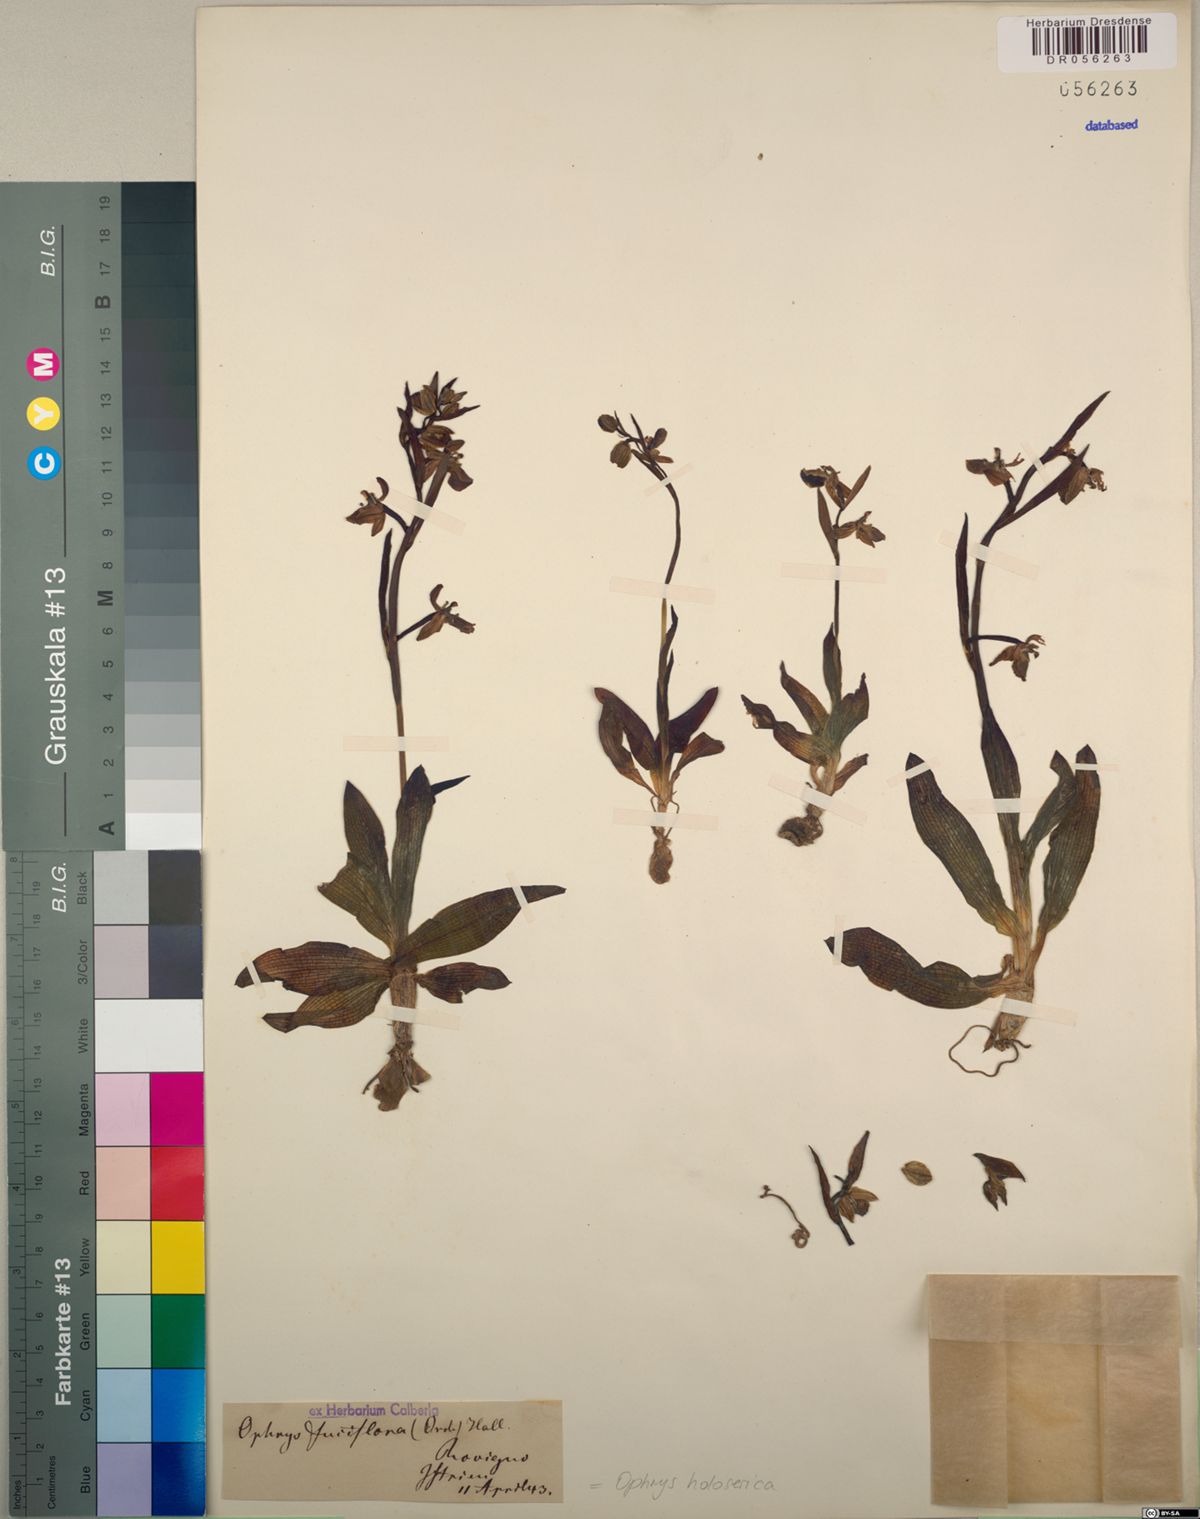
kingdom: Plantae
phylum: Tracheophyta
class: Liliopsida
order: Asparagales
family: Orchidaceae
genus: Ophrys
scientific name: Ophrys holosericea
